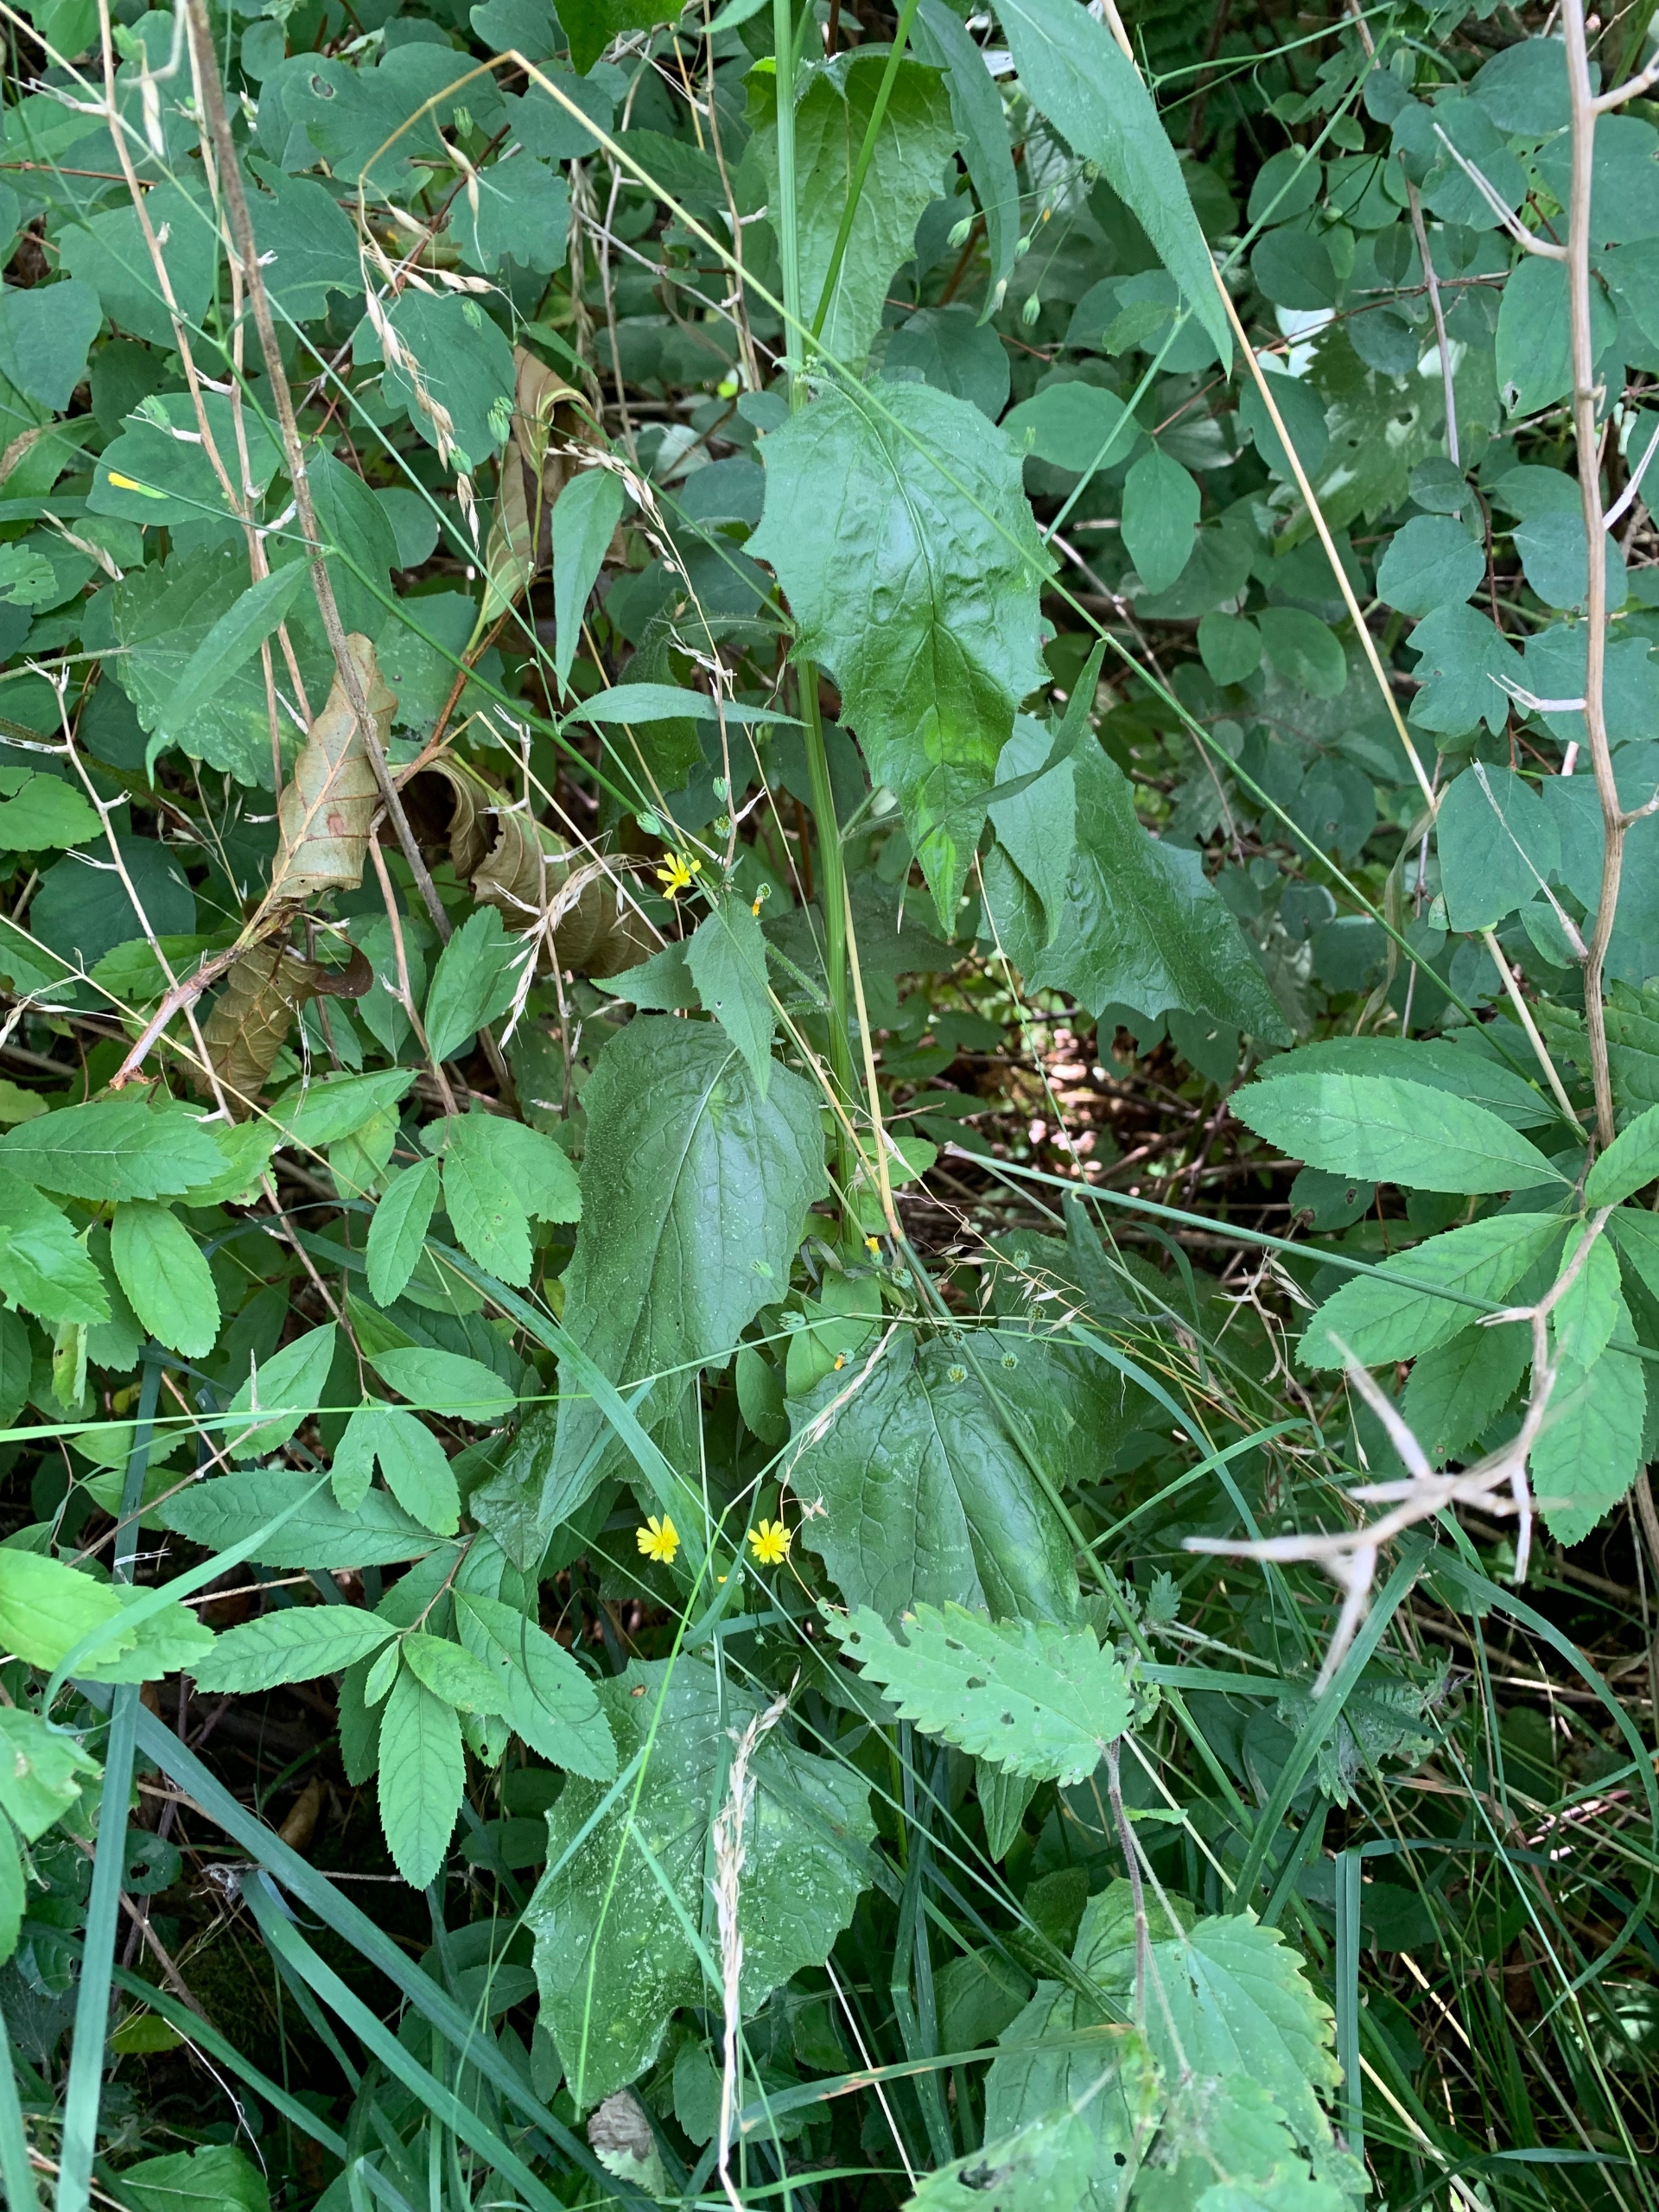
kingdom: Plantae
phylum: Tracheophyta
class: Magnoliopsida
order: Asterales
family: Asteraceae
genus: Lapsana
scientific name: Lapsana communis
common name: Haremad
